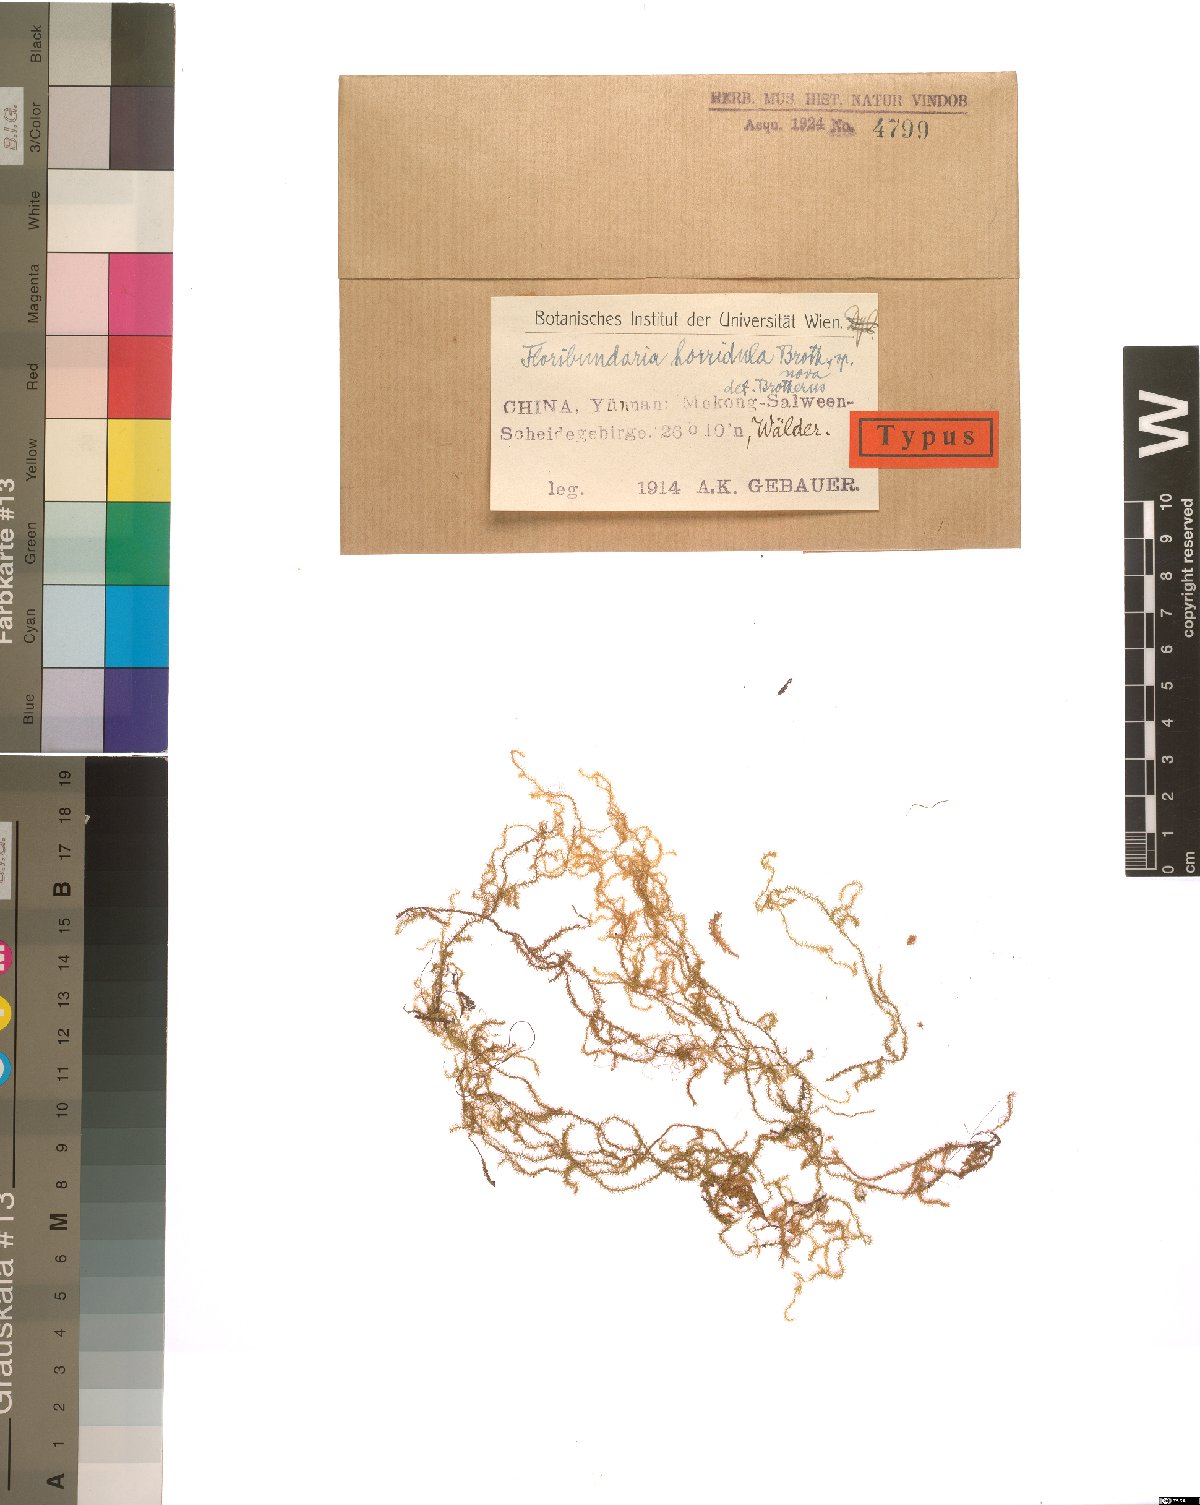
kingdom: Plantae
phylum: Bryophyta
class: Bryopsida
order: Hypnales
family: Meteoriaceae
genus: Sinskea
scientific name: Sinskea flammea
